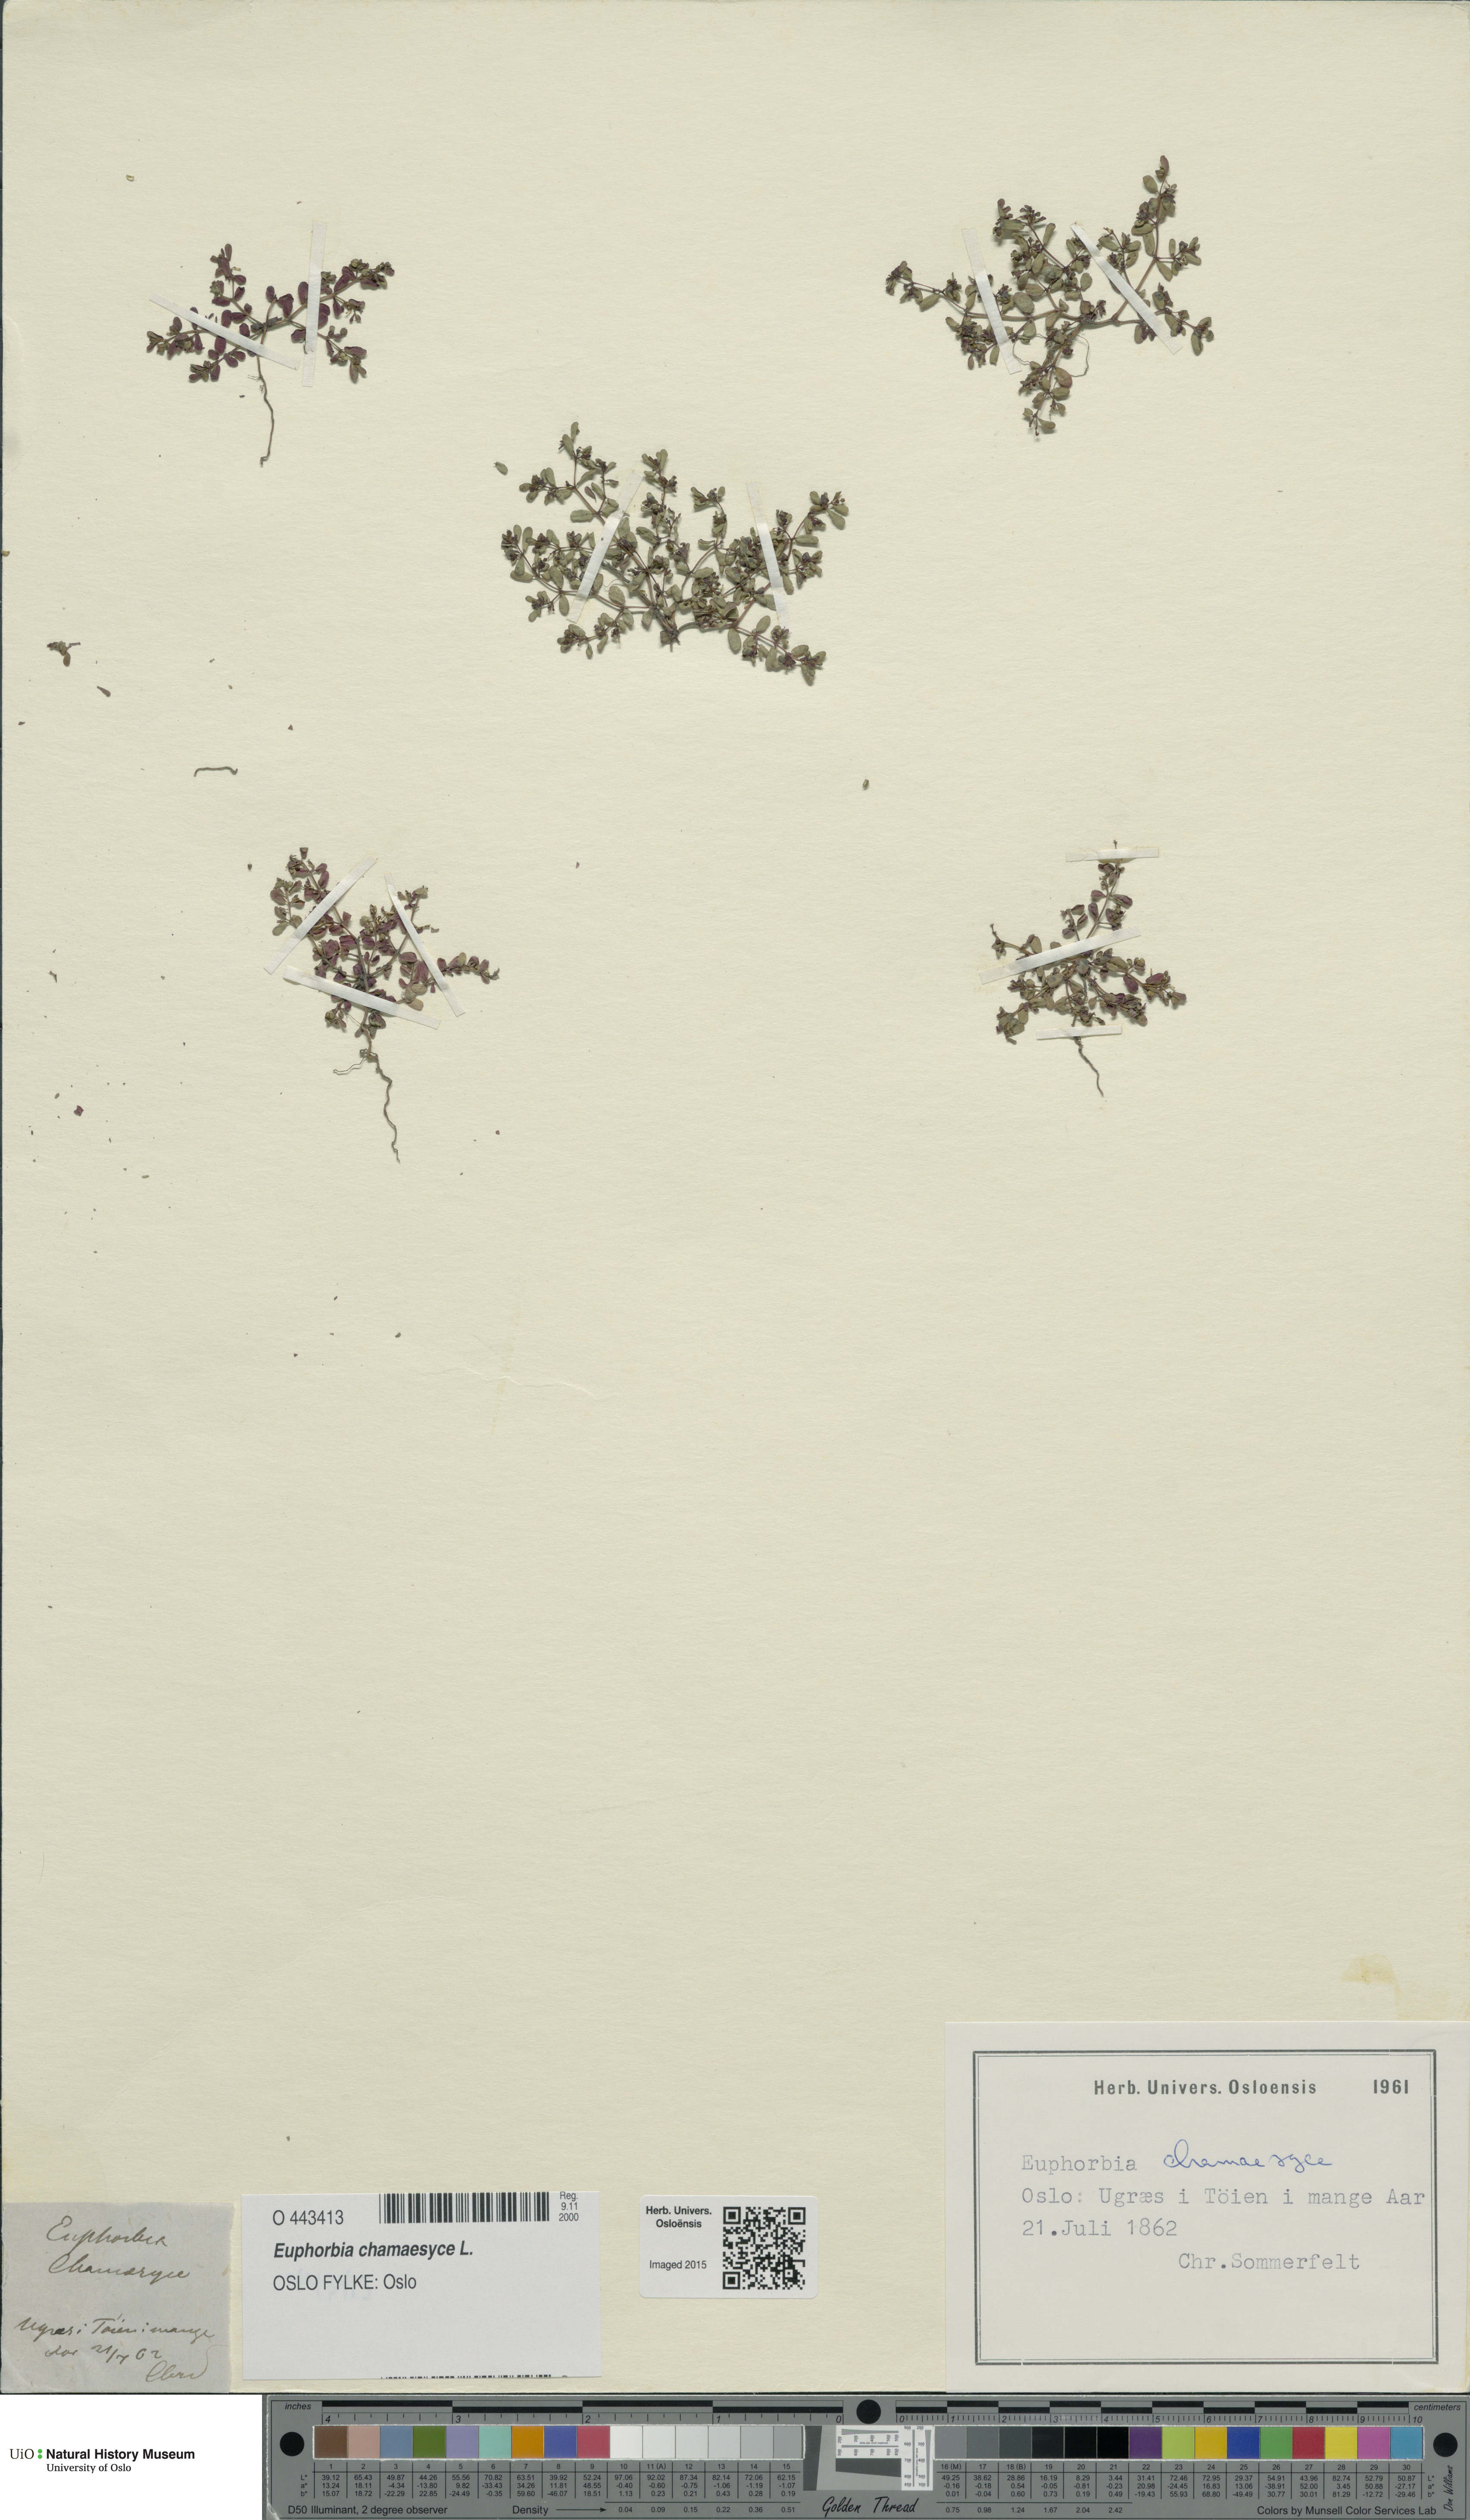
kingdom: Plantae
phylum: Tracheophyta
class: Magnoliopsida
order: Malpighiales
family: Euphorbiaceae
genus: Euphorbia
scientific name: Euphorbia chamaesyce
